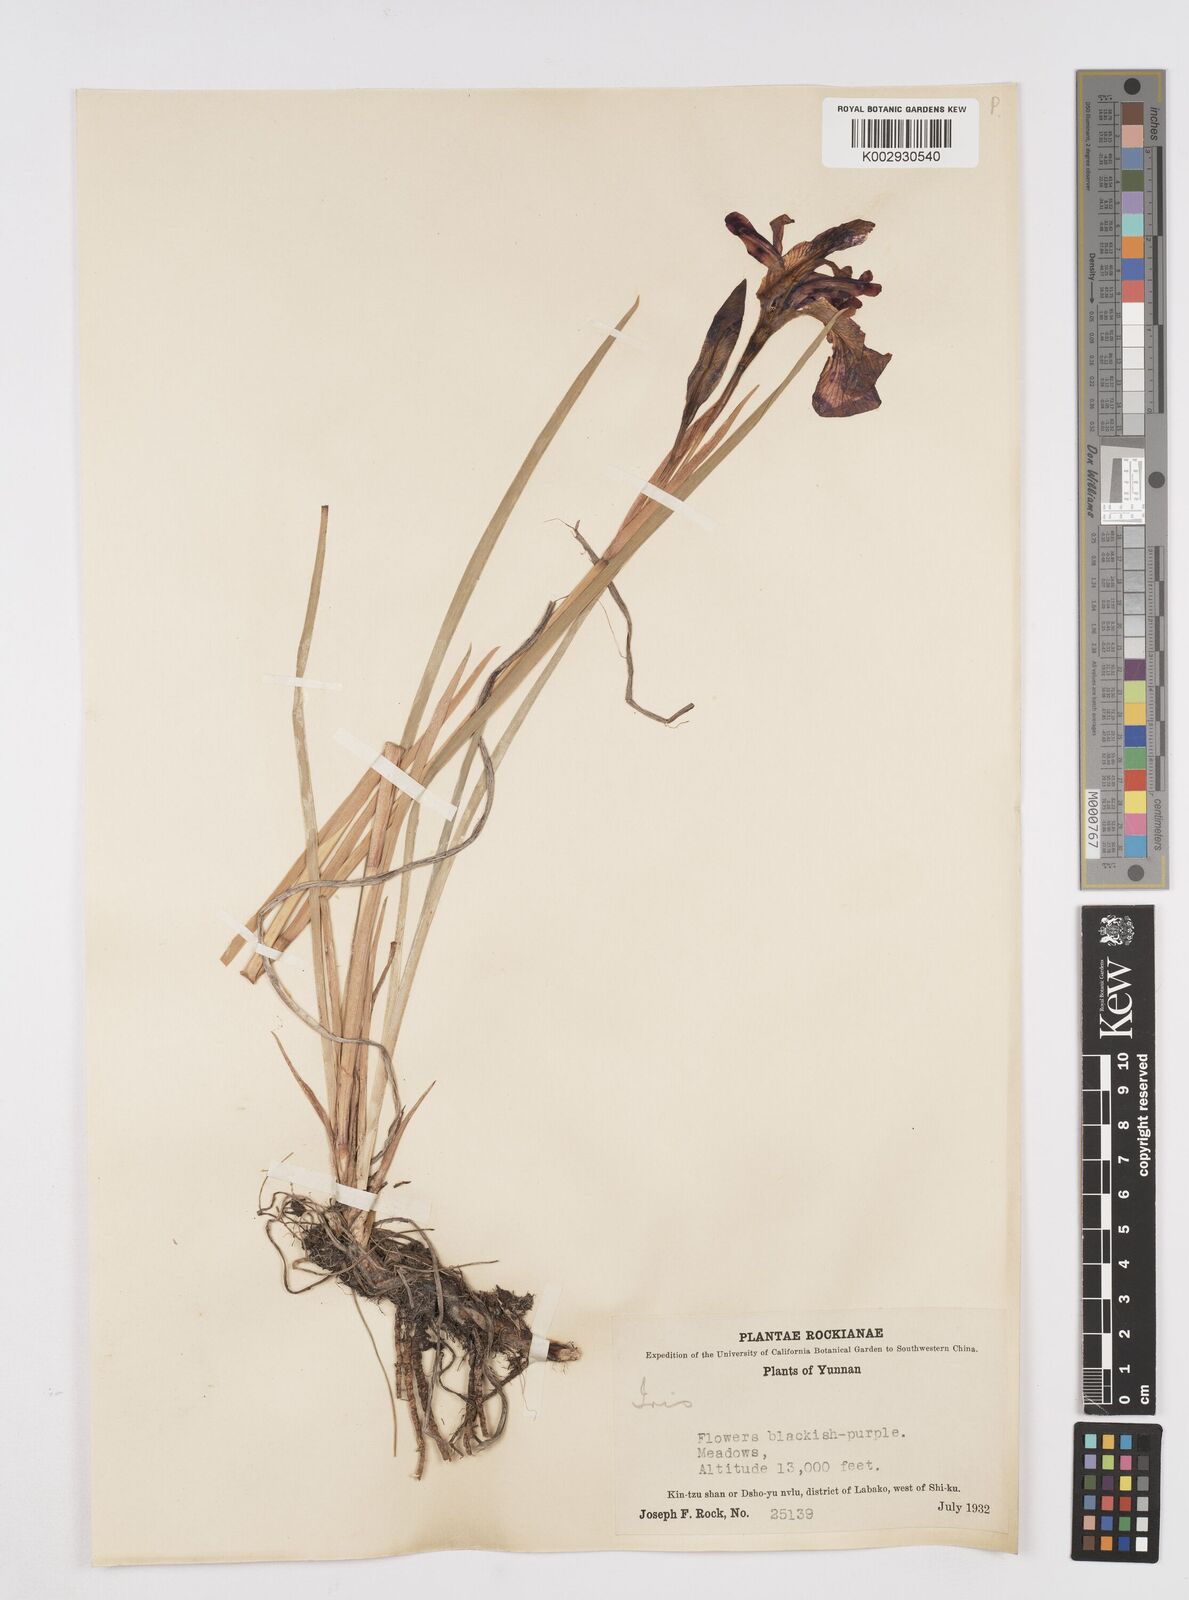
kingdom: Plantae
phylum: Tracheophyta
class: Liliopsida
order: Asparagales
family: Iridaceae
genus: Iris
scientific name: Iris bulleyana
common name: Southwest iris
